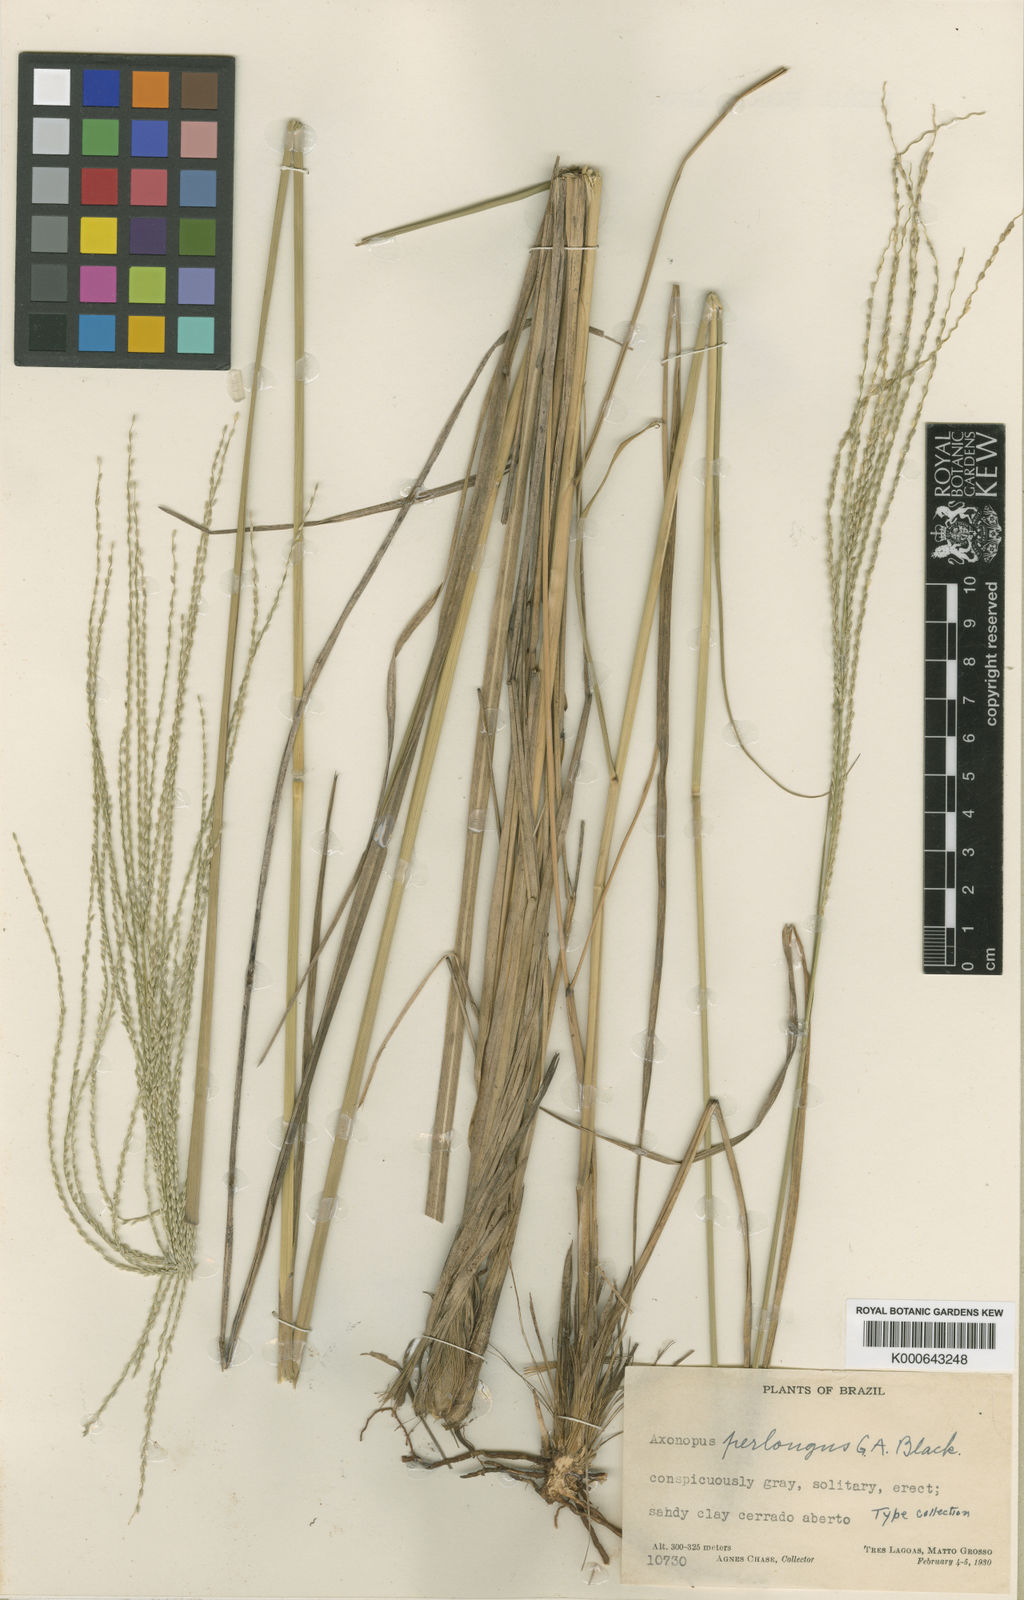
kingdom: Plantae
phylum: Tracheophyta
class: Liliopsida
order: Poales
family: Poaceae
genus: Axonopus
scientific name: Axonopus siccus
